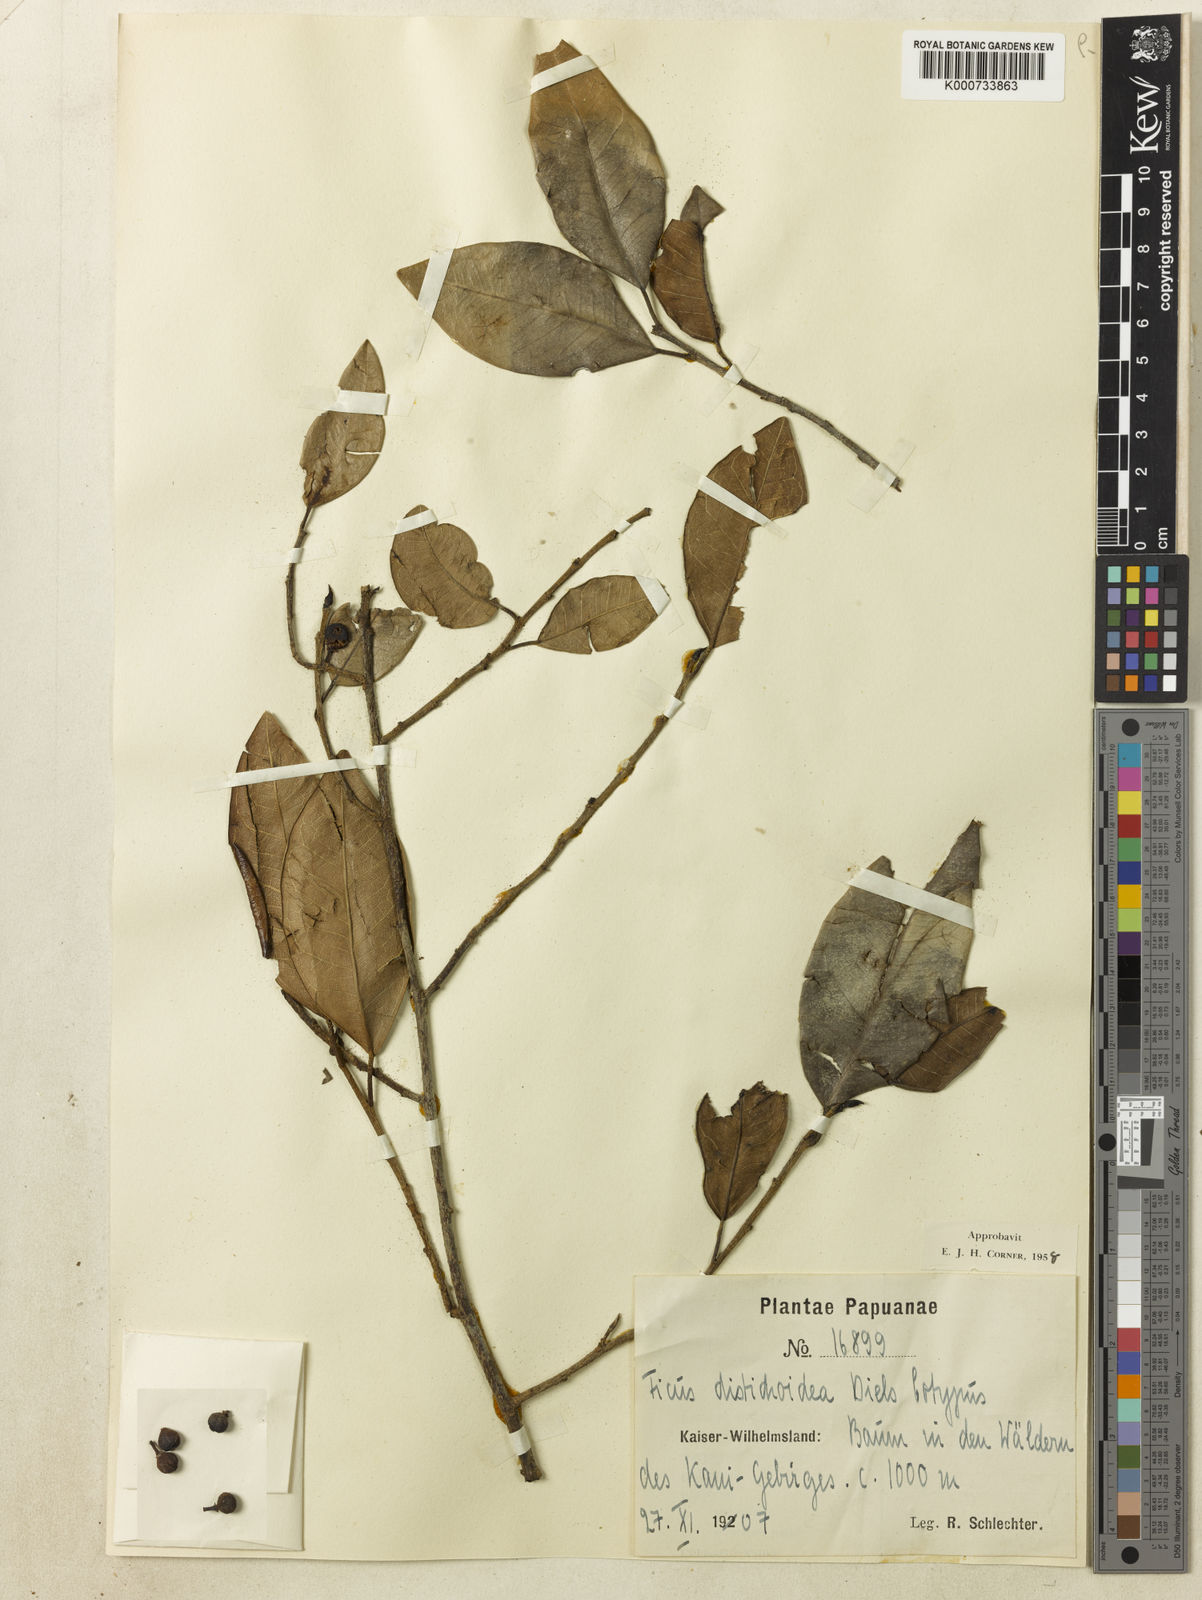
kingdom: Plantae
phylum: Tracheophyta
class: Magnoliopsida
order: Rosales
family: Moraceae
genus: Ficus
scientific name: Ficus distichoidea
